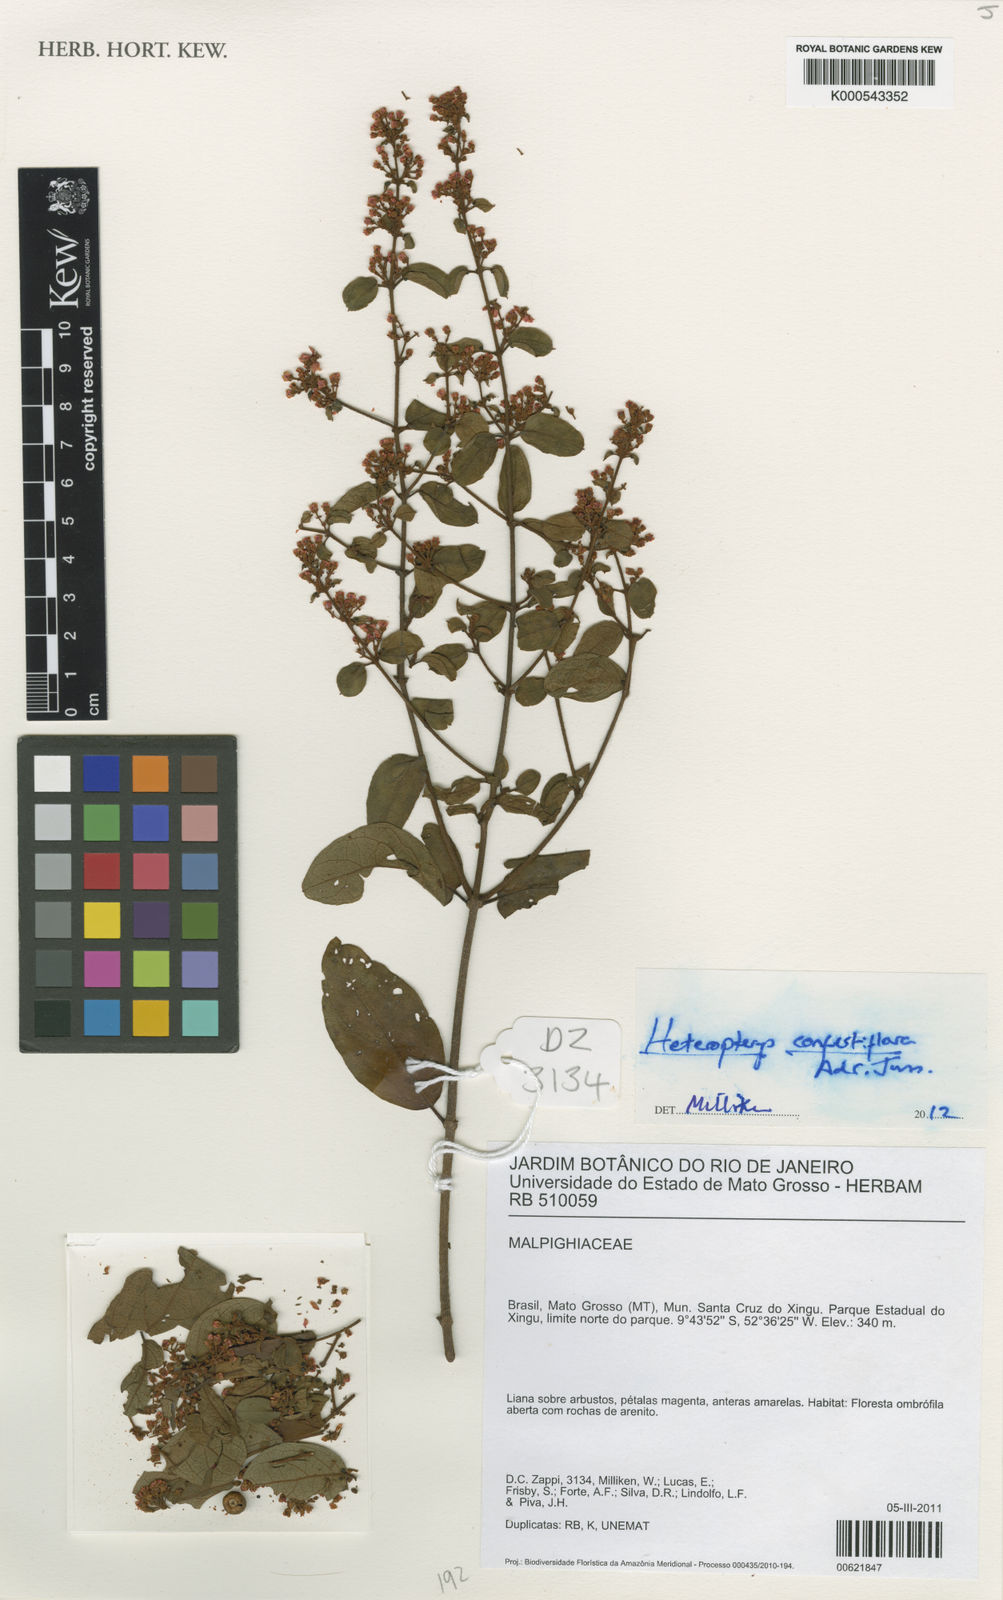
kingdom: Plantae
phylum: Tracheophyta
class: Magnoliopsida
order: Malpighiales
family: Malpighiaceae
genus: Heteropterys
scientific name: Heteropterys campestris
